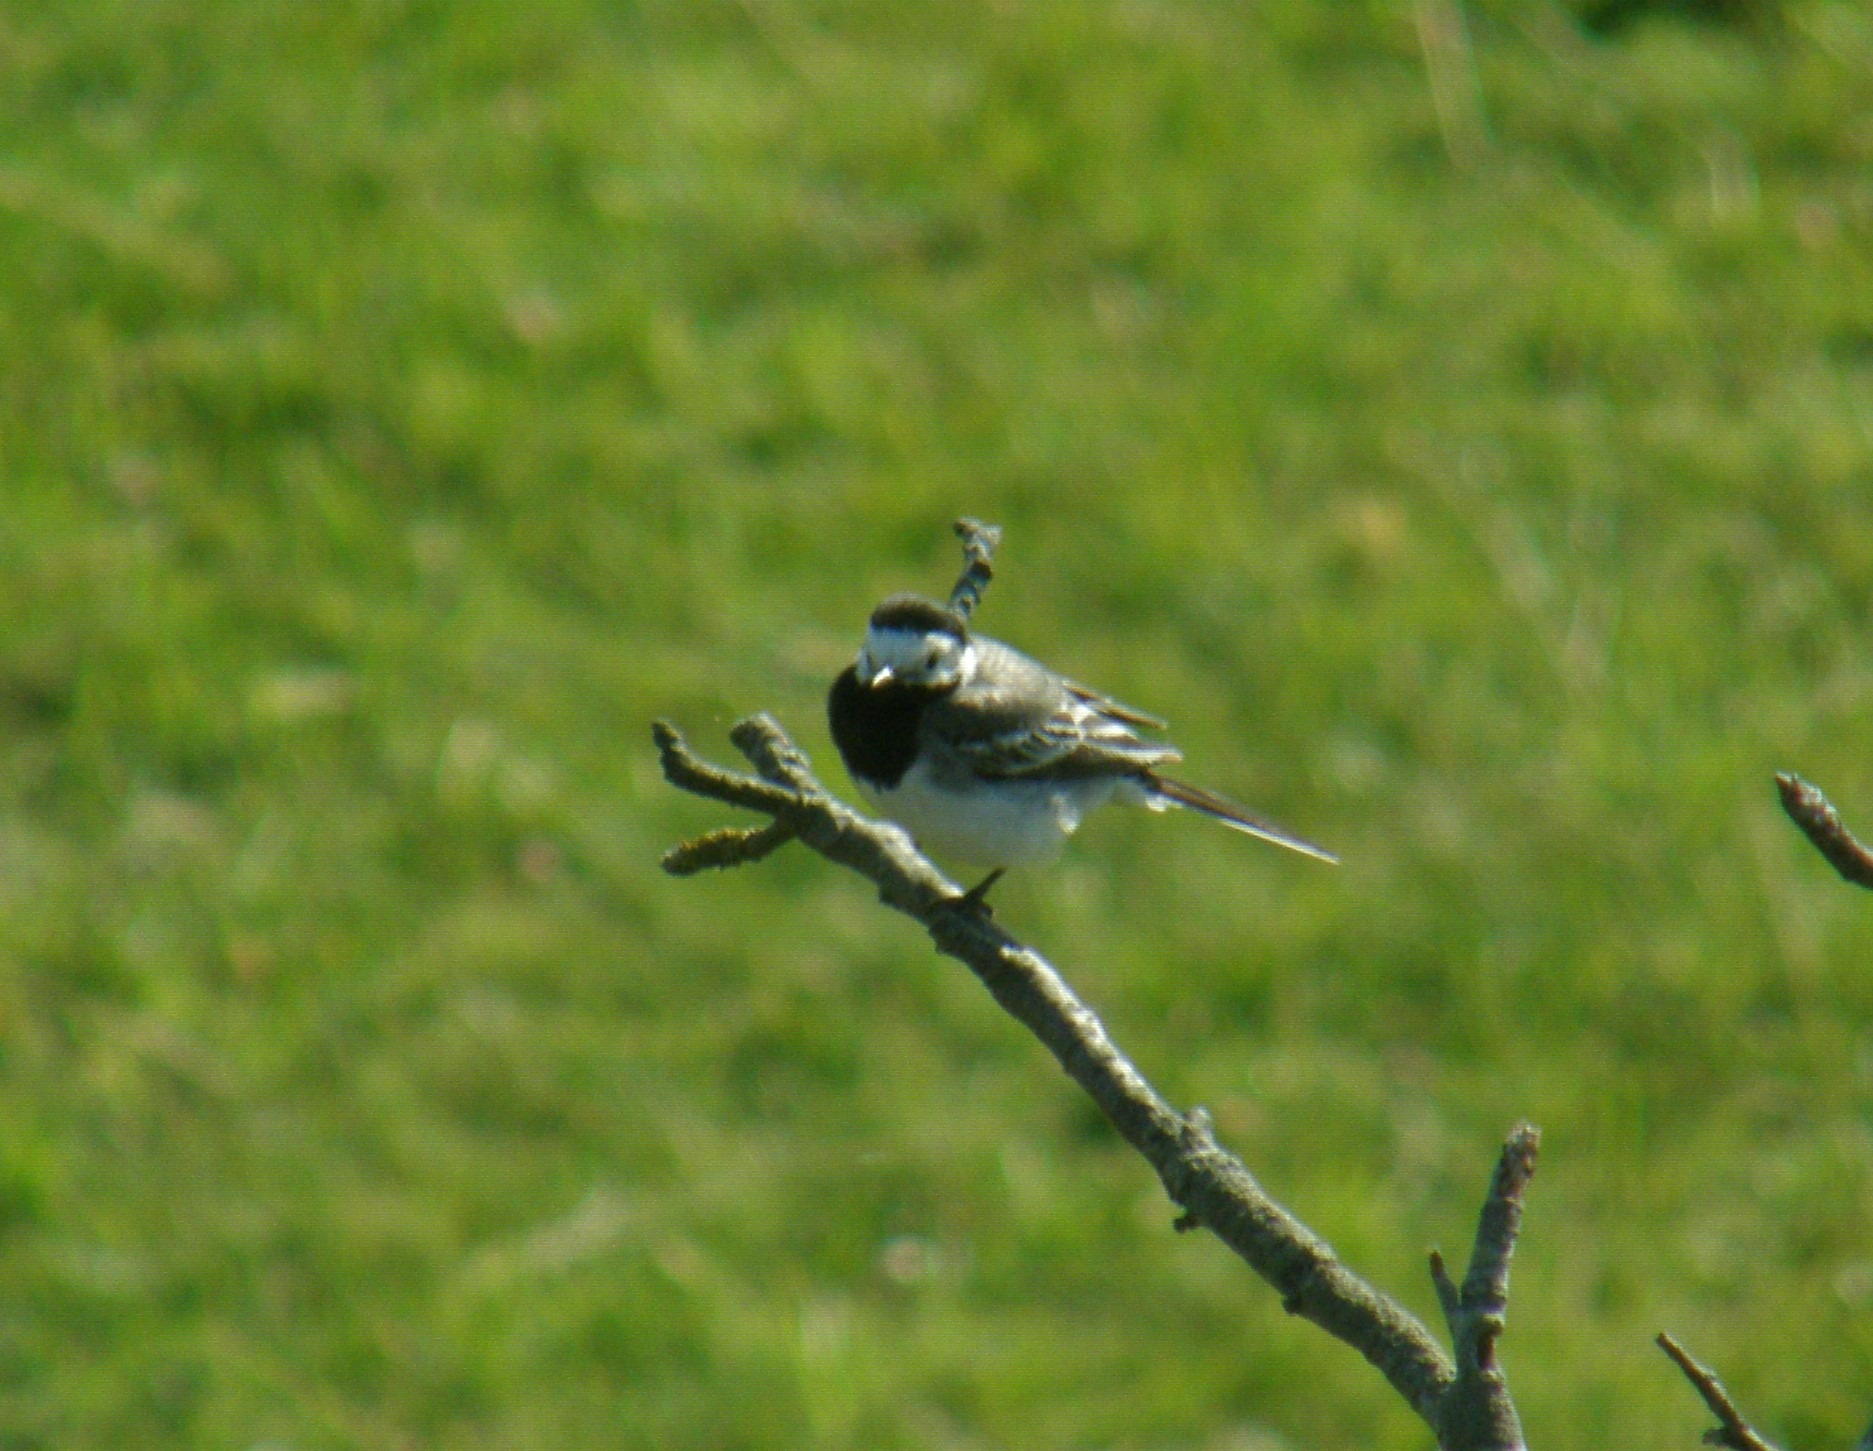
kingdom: Animalia
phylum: Chordata
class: Aves
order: Passeriformes
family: Motacillidae
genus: Motacilla
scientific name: Motacilla alba
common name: Hvid vipstjert
